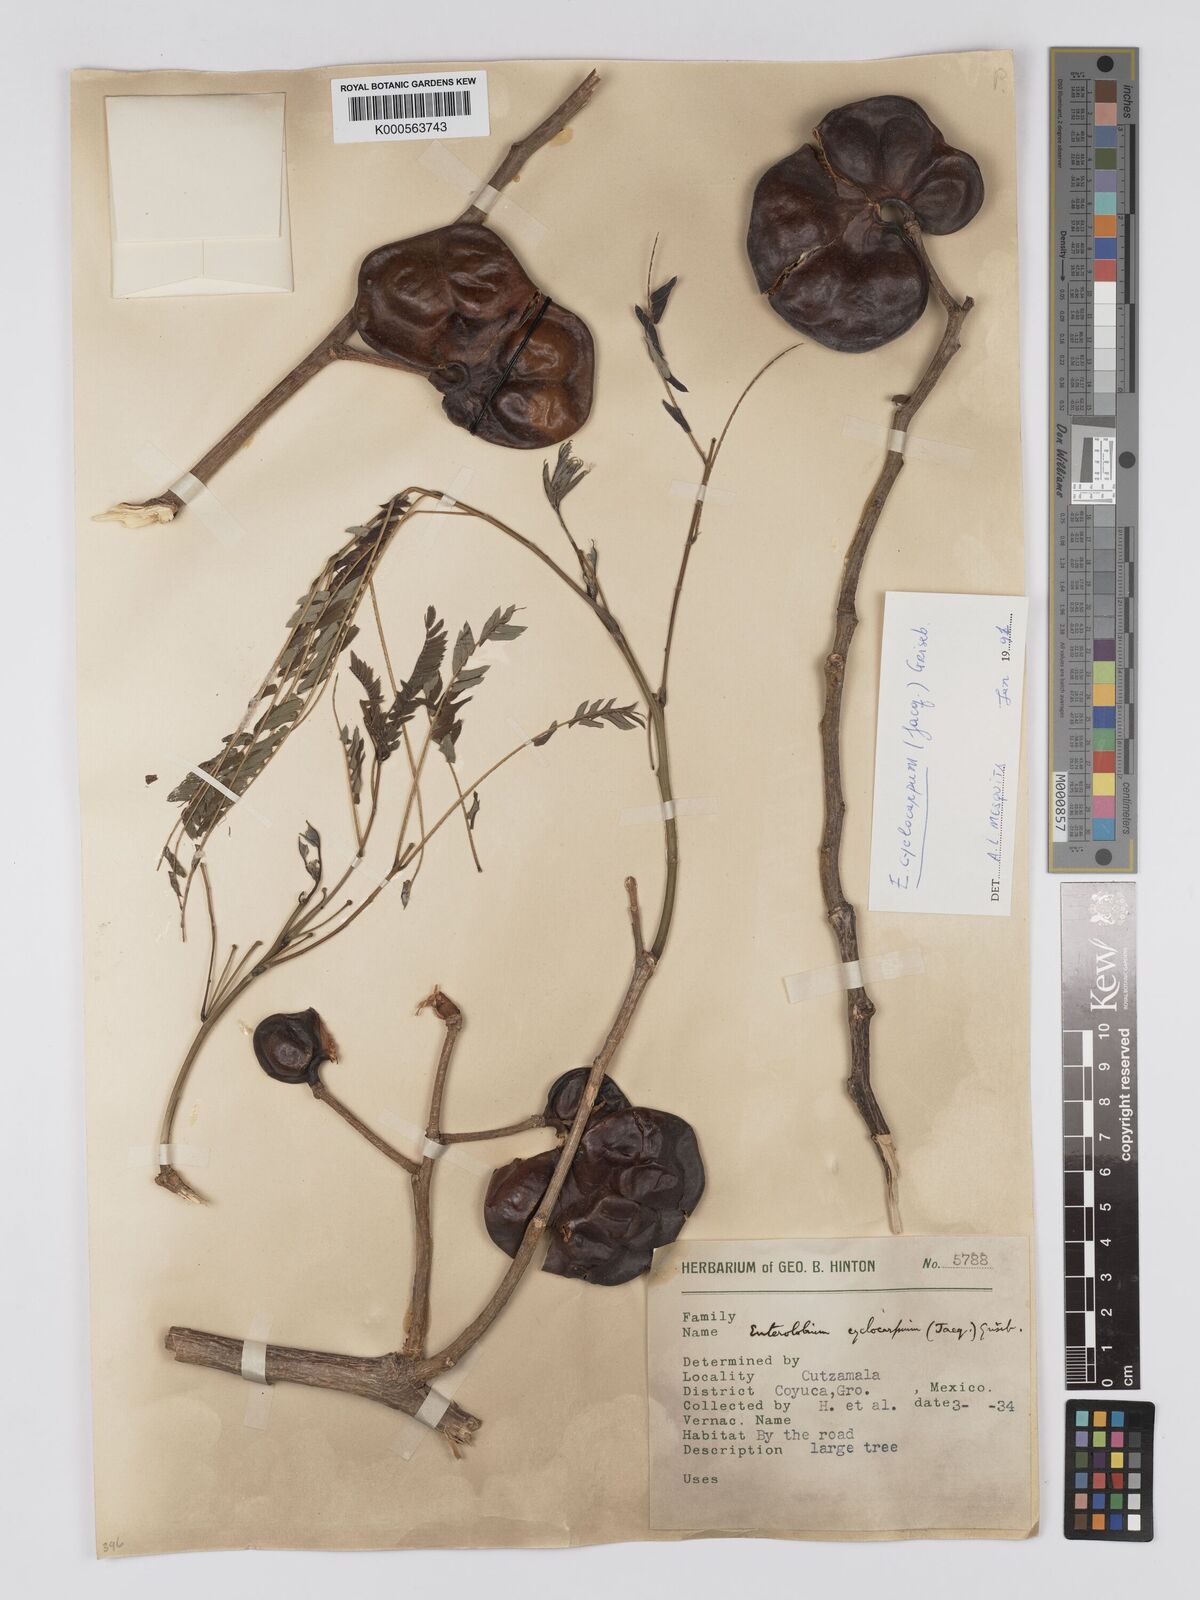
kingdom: Plantae
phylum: Tracheophyta
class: Magnoliopsida
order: Fabales
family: Fabaceae
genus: Enterolobium
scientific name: Enterolobium cyclocarpum
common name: Ear tree
